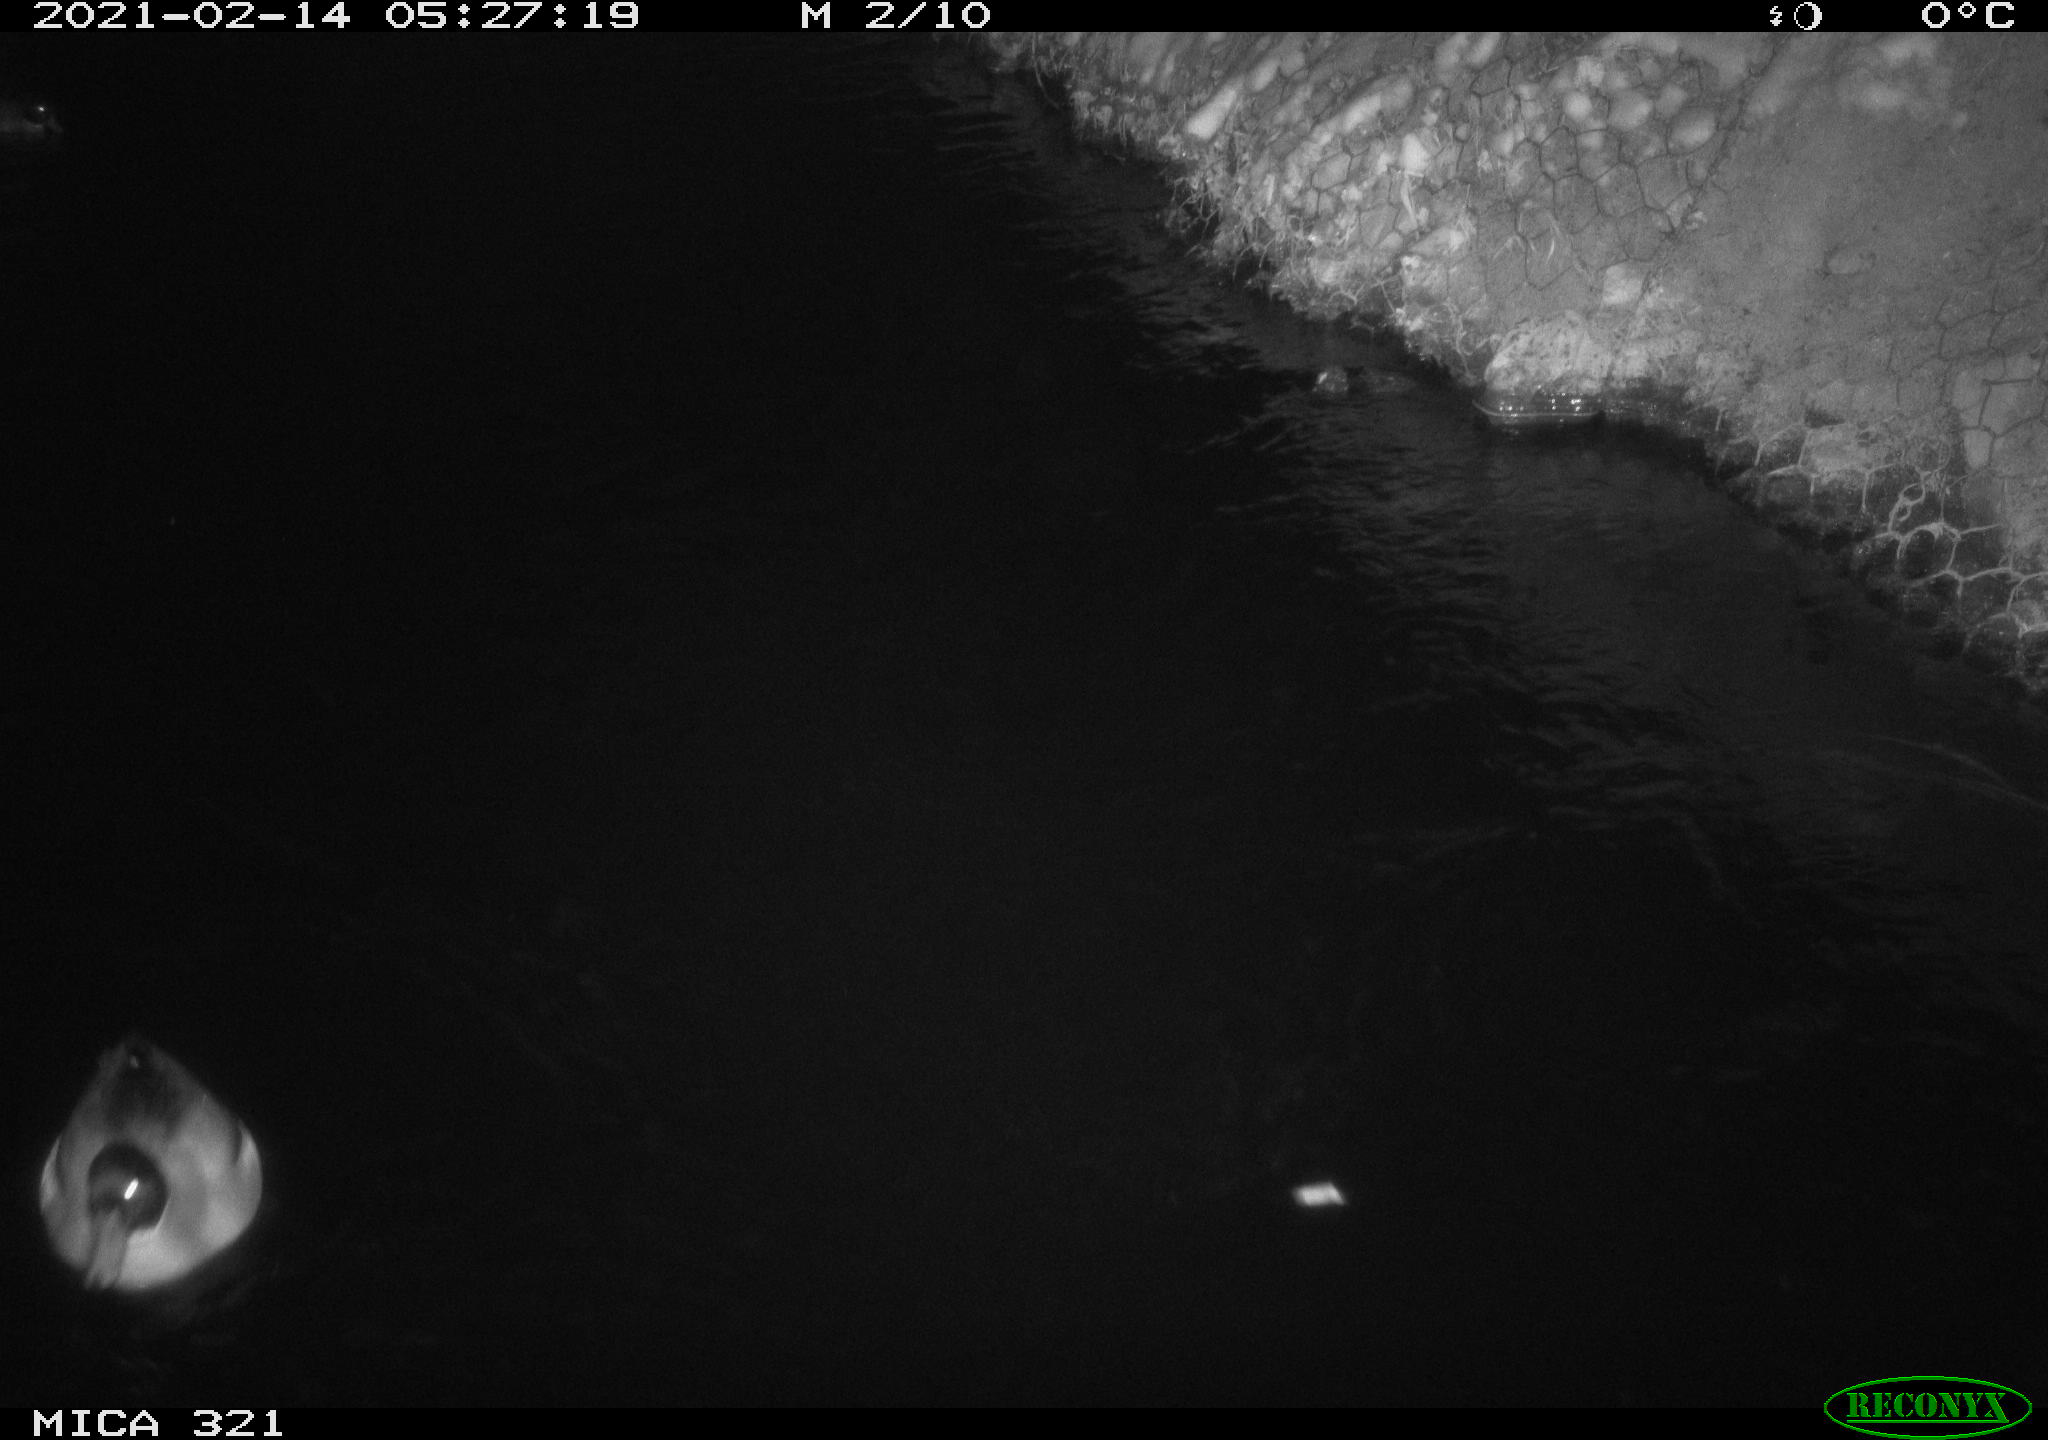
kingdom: Animalia
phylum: Chordata
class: Aves
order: Anseriformes
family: Anatidae
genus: Anas
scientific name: Anas platyrhynchos
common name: Mallard
